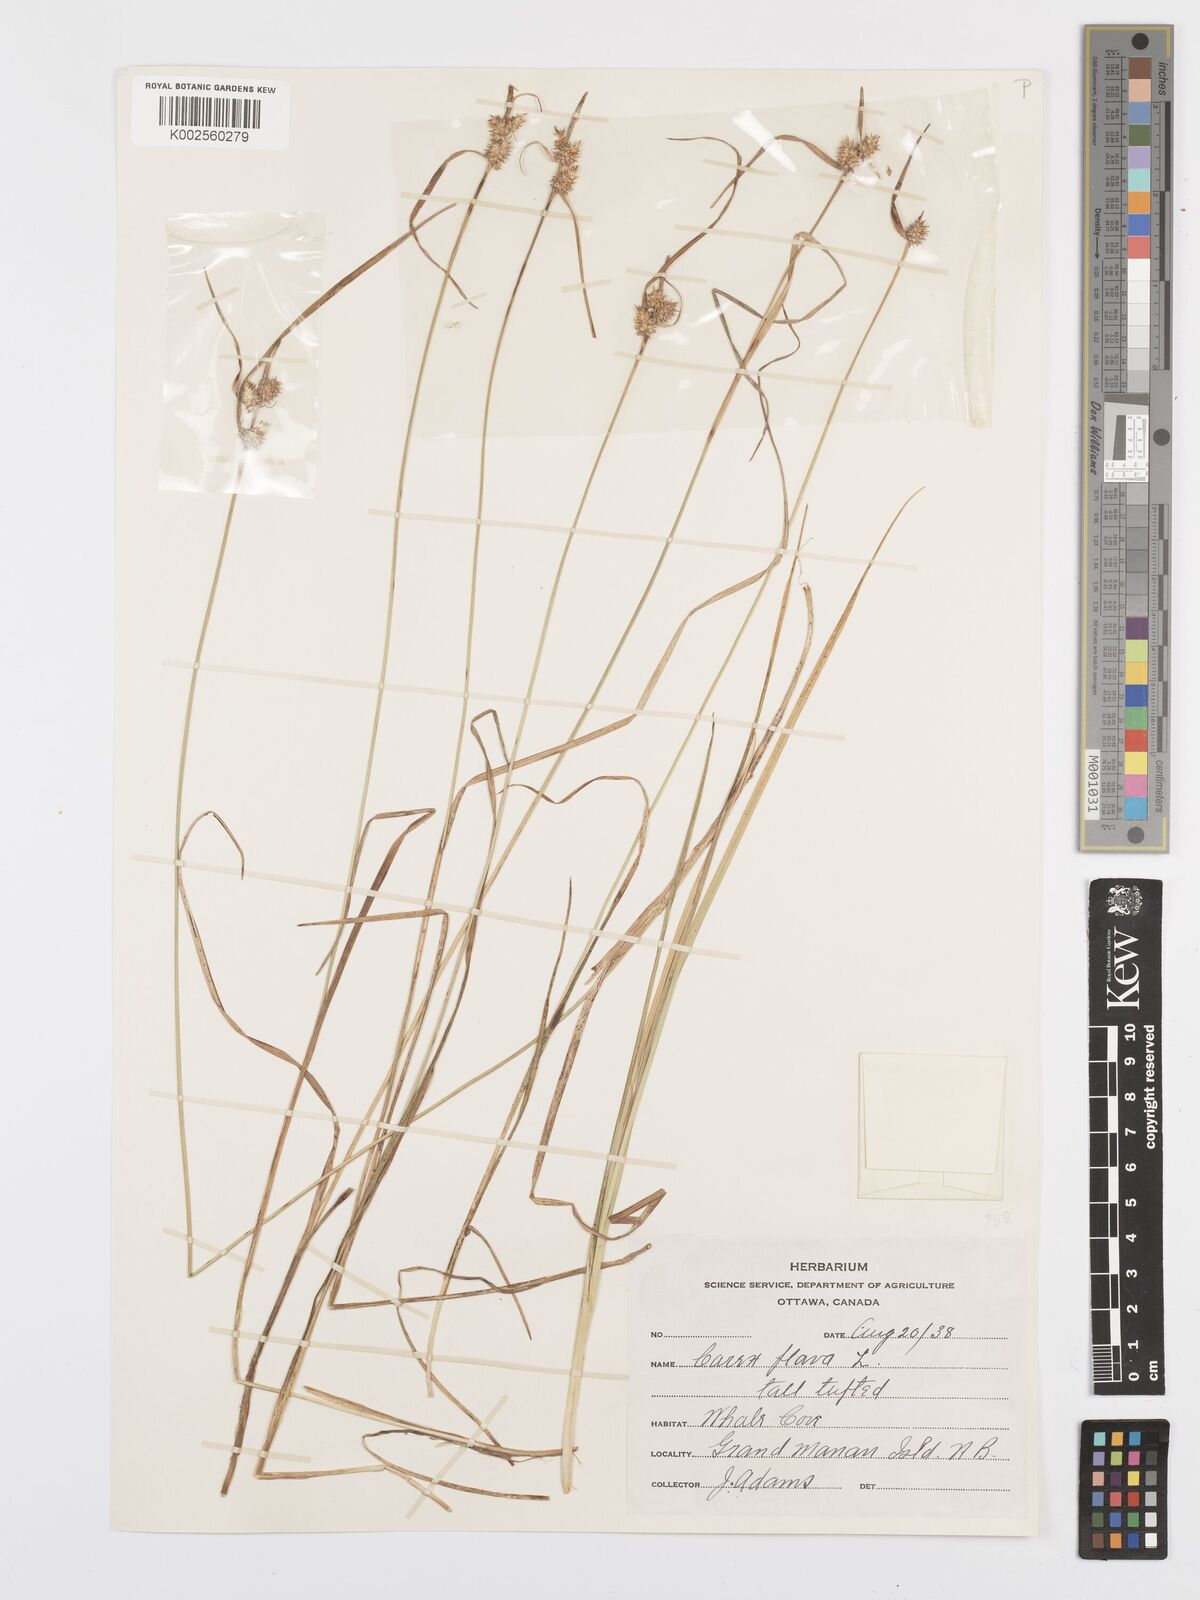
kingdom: Plantae
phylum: Tracheophyta
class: Liliopsida
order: Poales
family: Cyperaceae
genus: Carex
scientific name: Carex flava
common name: Large yellow-sedge
